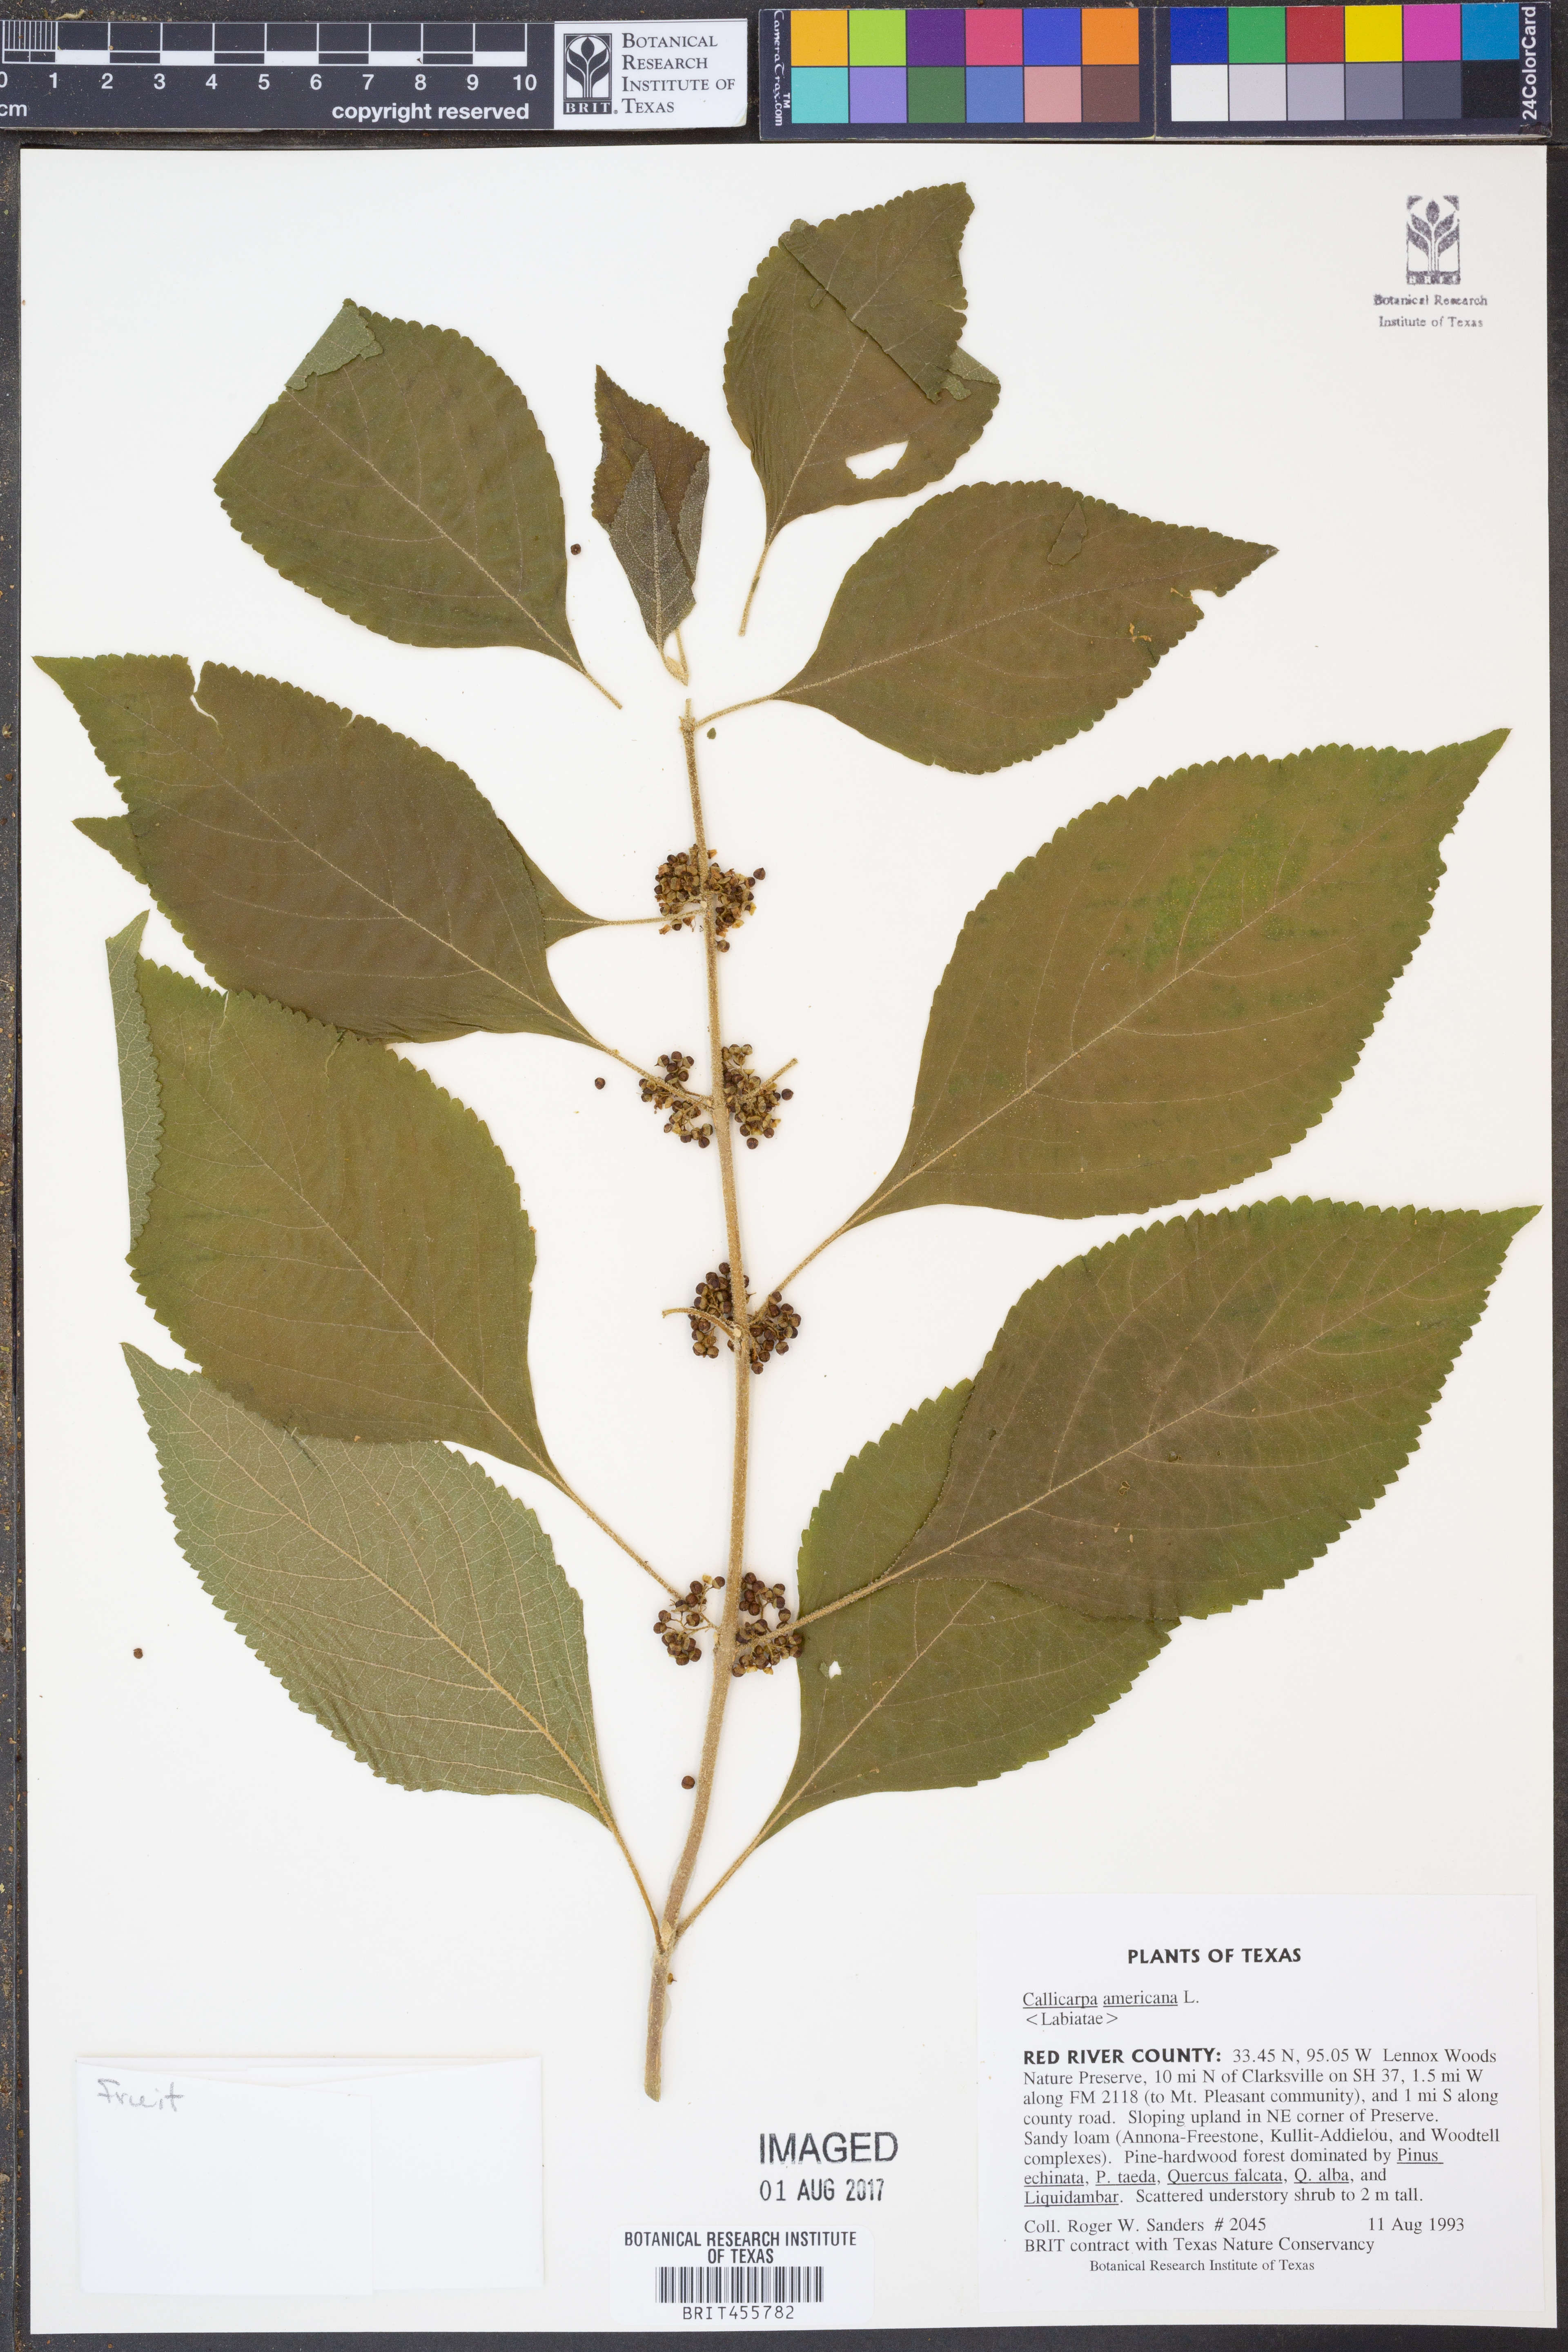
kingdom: Plantae
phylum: Tracheophyta
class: Magnoliopsida
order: Lamiales
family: Lamiaceae
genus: Callicarpa
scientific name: Callicarpa americana
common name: American beautyberry
